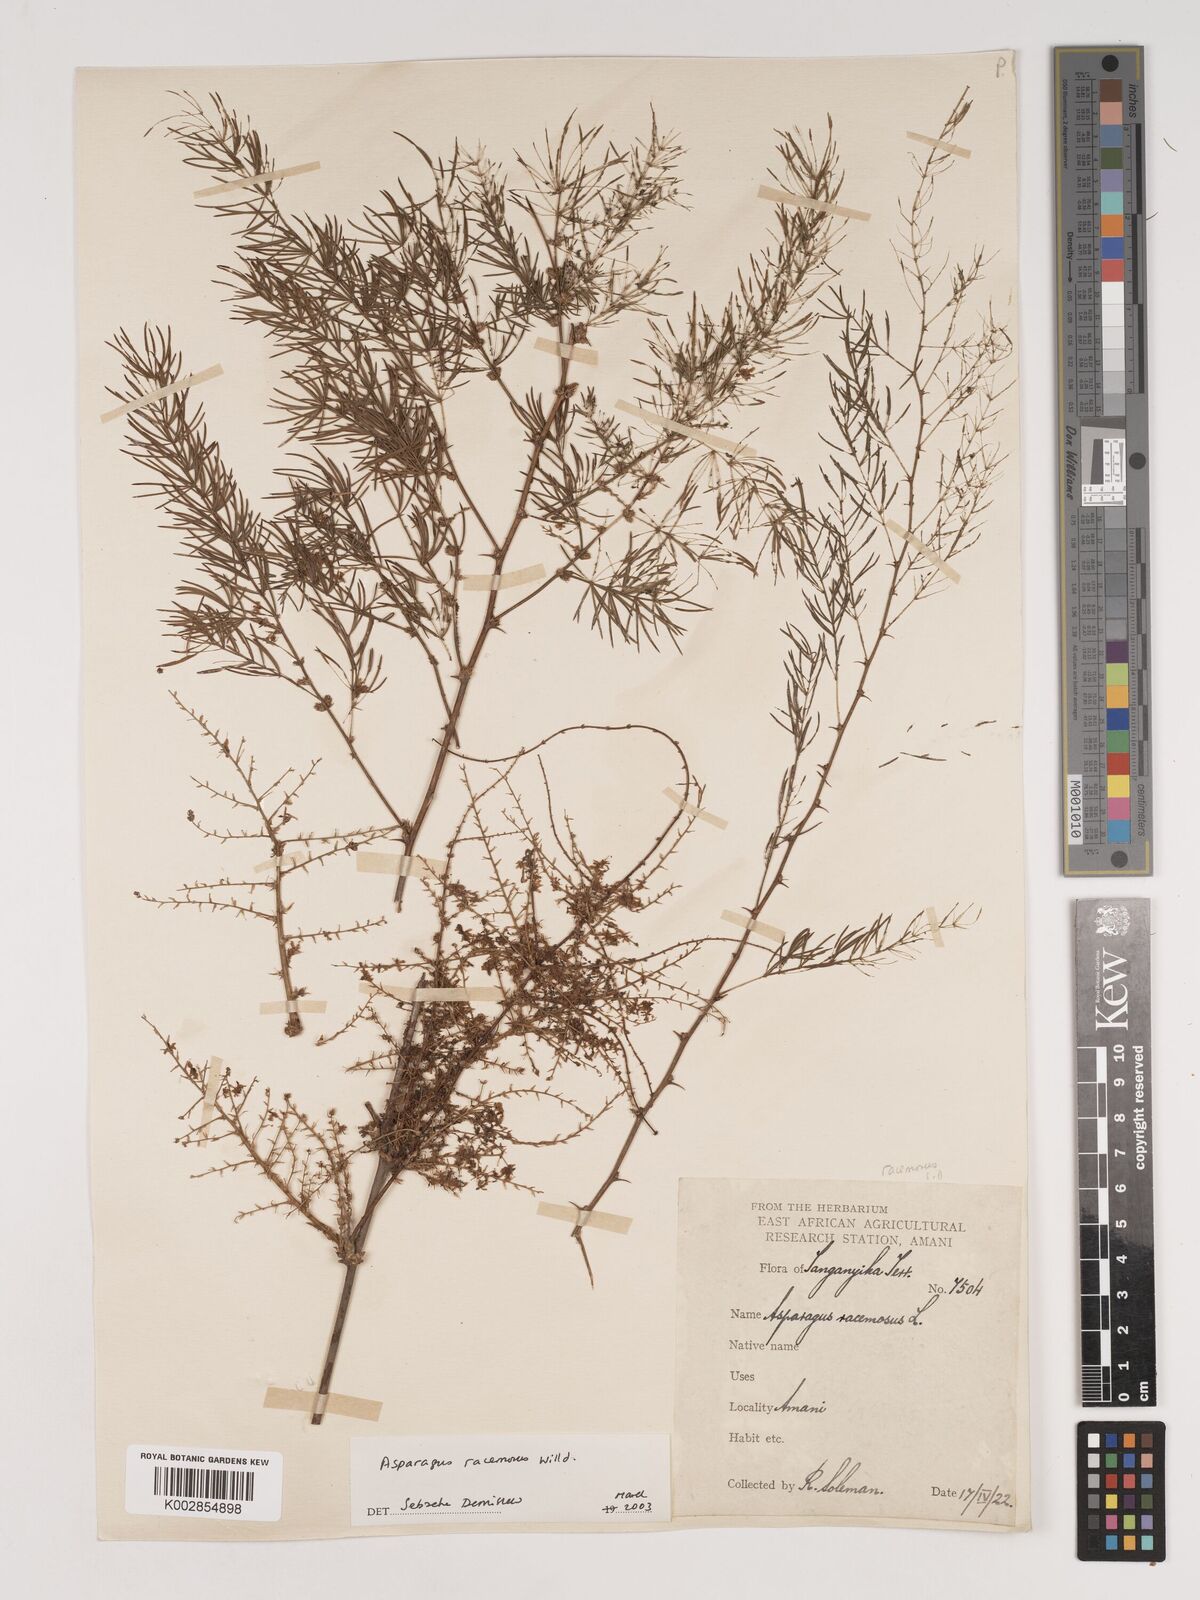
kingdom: Plantae
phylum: Tracheophyta
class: Liliopsida
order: Asparagales
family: Asparagaceae
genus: Asparagus
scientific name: Asparagus racemosus
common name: Asparagus-fern
